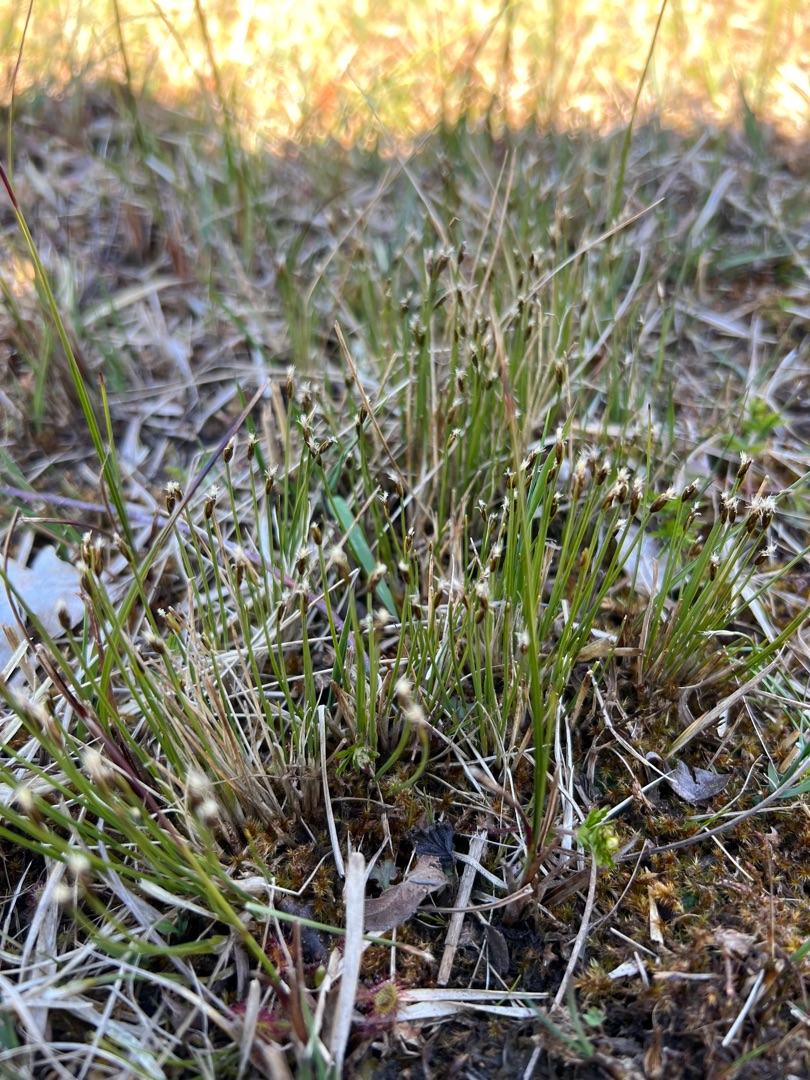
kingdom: Plantae
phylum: Tracheophyta
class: Liliopsida
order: Poales
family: Cyperaceae
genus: Trichophorum
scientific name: Trichophorum alpinum
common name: Liden kæruld
